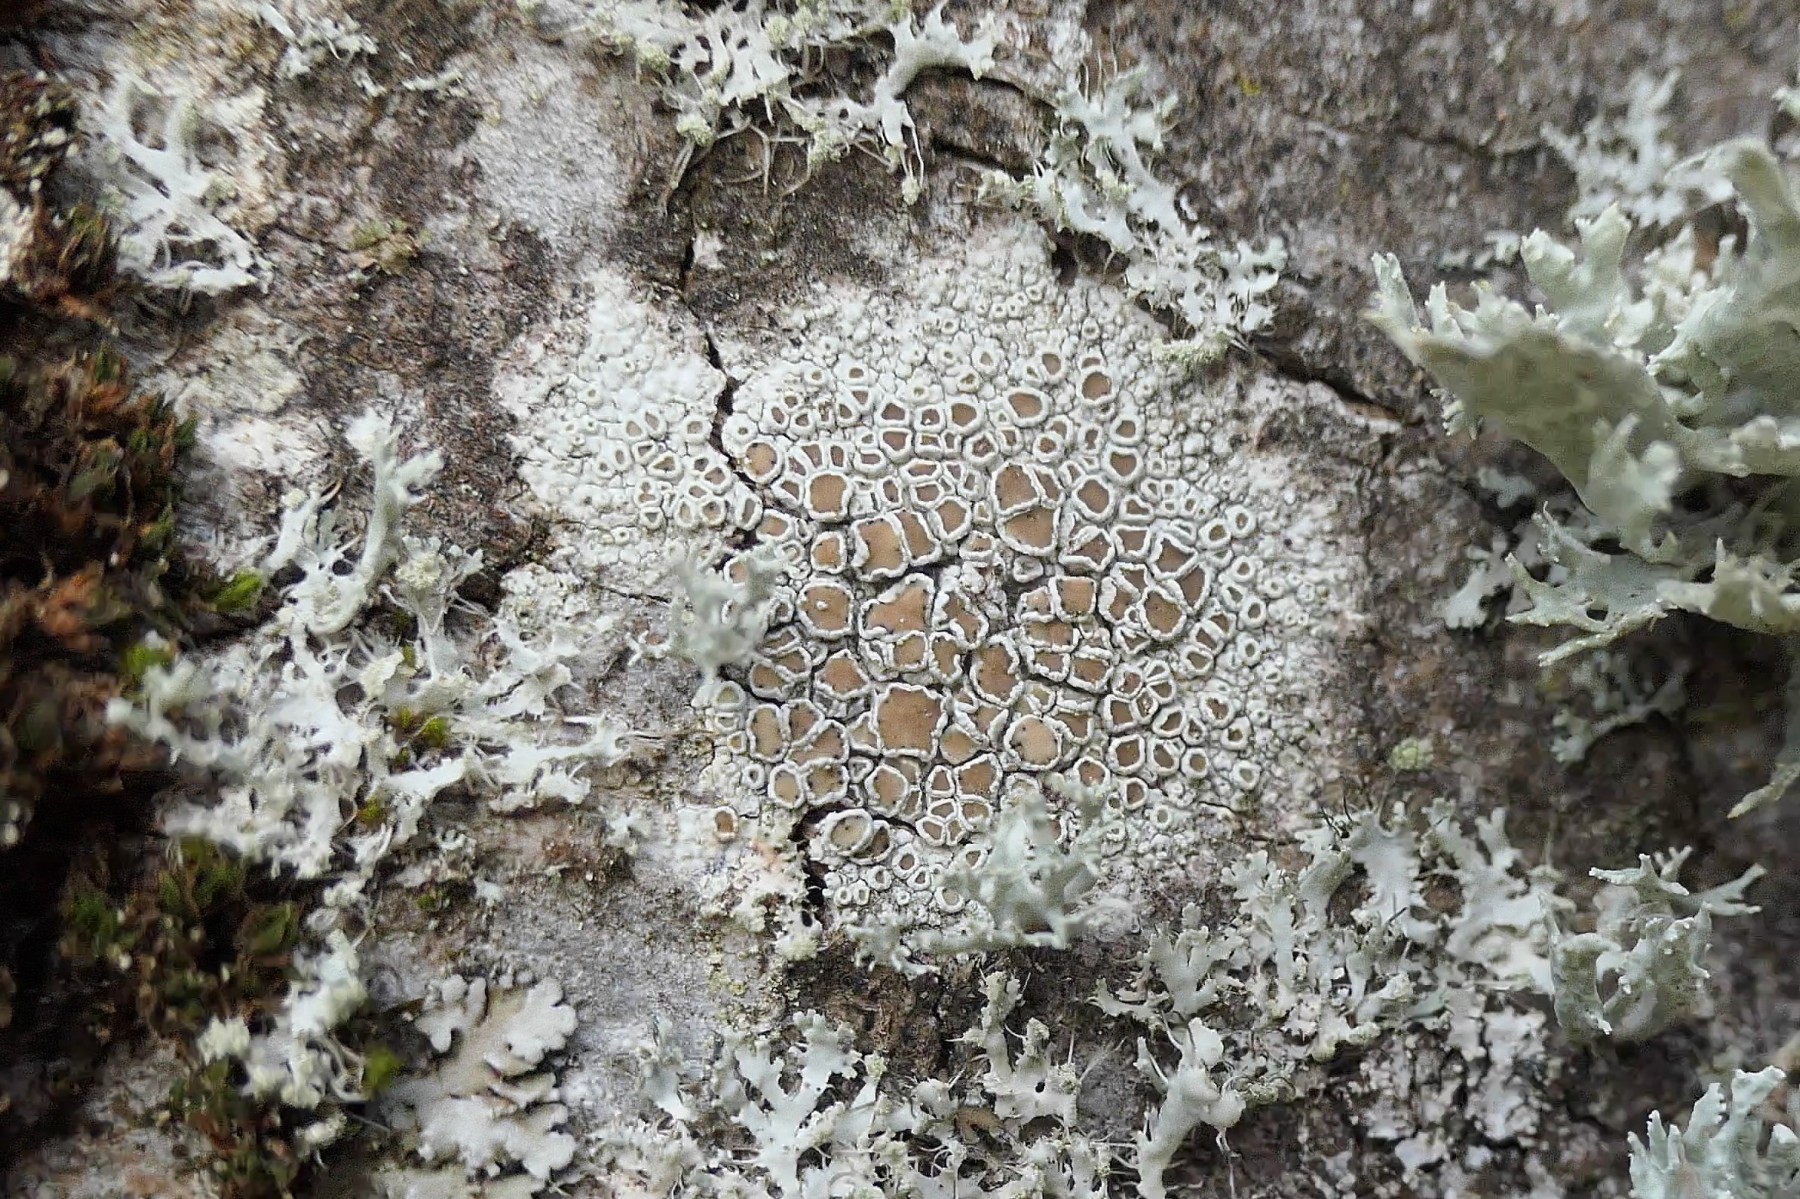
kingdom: Fungi
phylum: Ascomycota
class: Lecanoromycetes
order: Lecanorales
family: Lecanoraceae
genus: Lecanora
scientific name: Lecanora chlarotera
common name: brun kantskivelav
